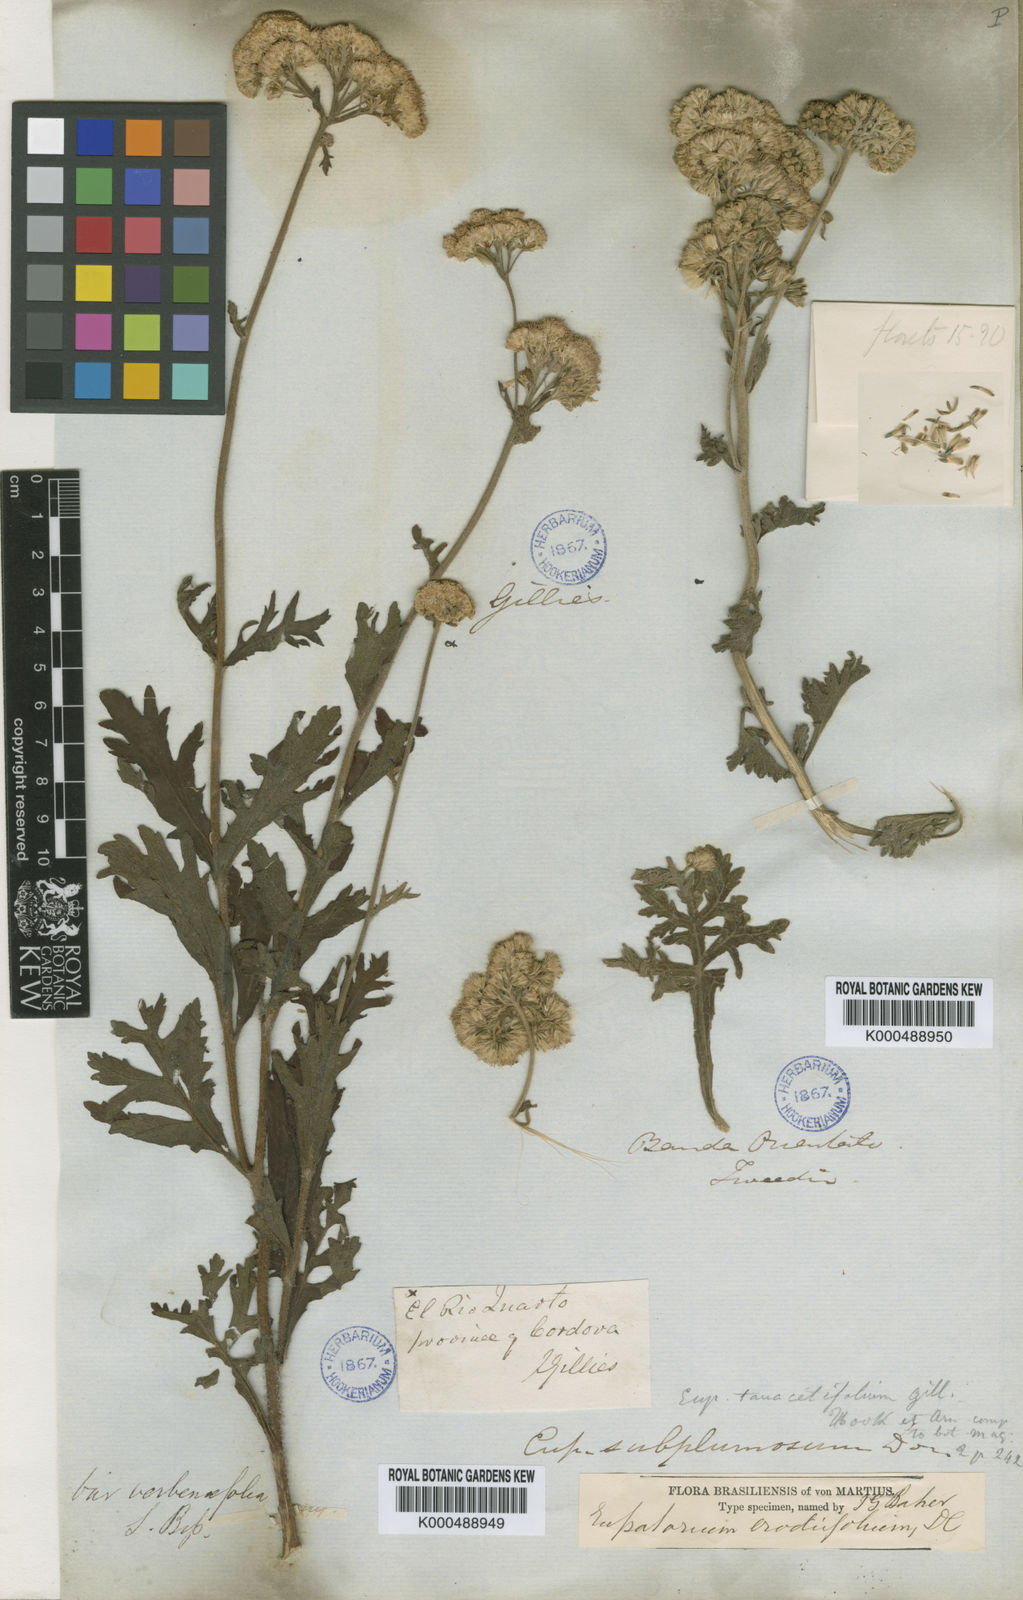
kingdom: Plantae
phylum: Tracheophyta
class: Magnoliopsida
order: Asterales
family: Asteraceae
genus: Gyptis
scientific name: Gyptis pinnatifida
